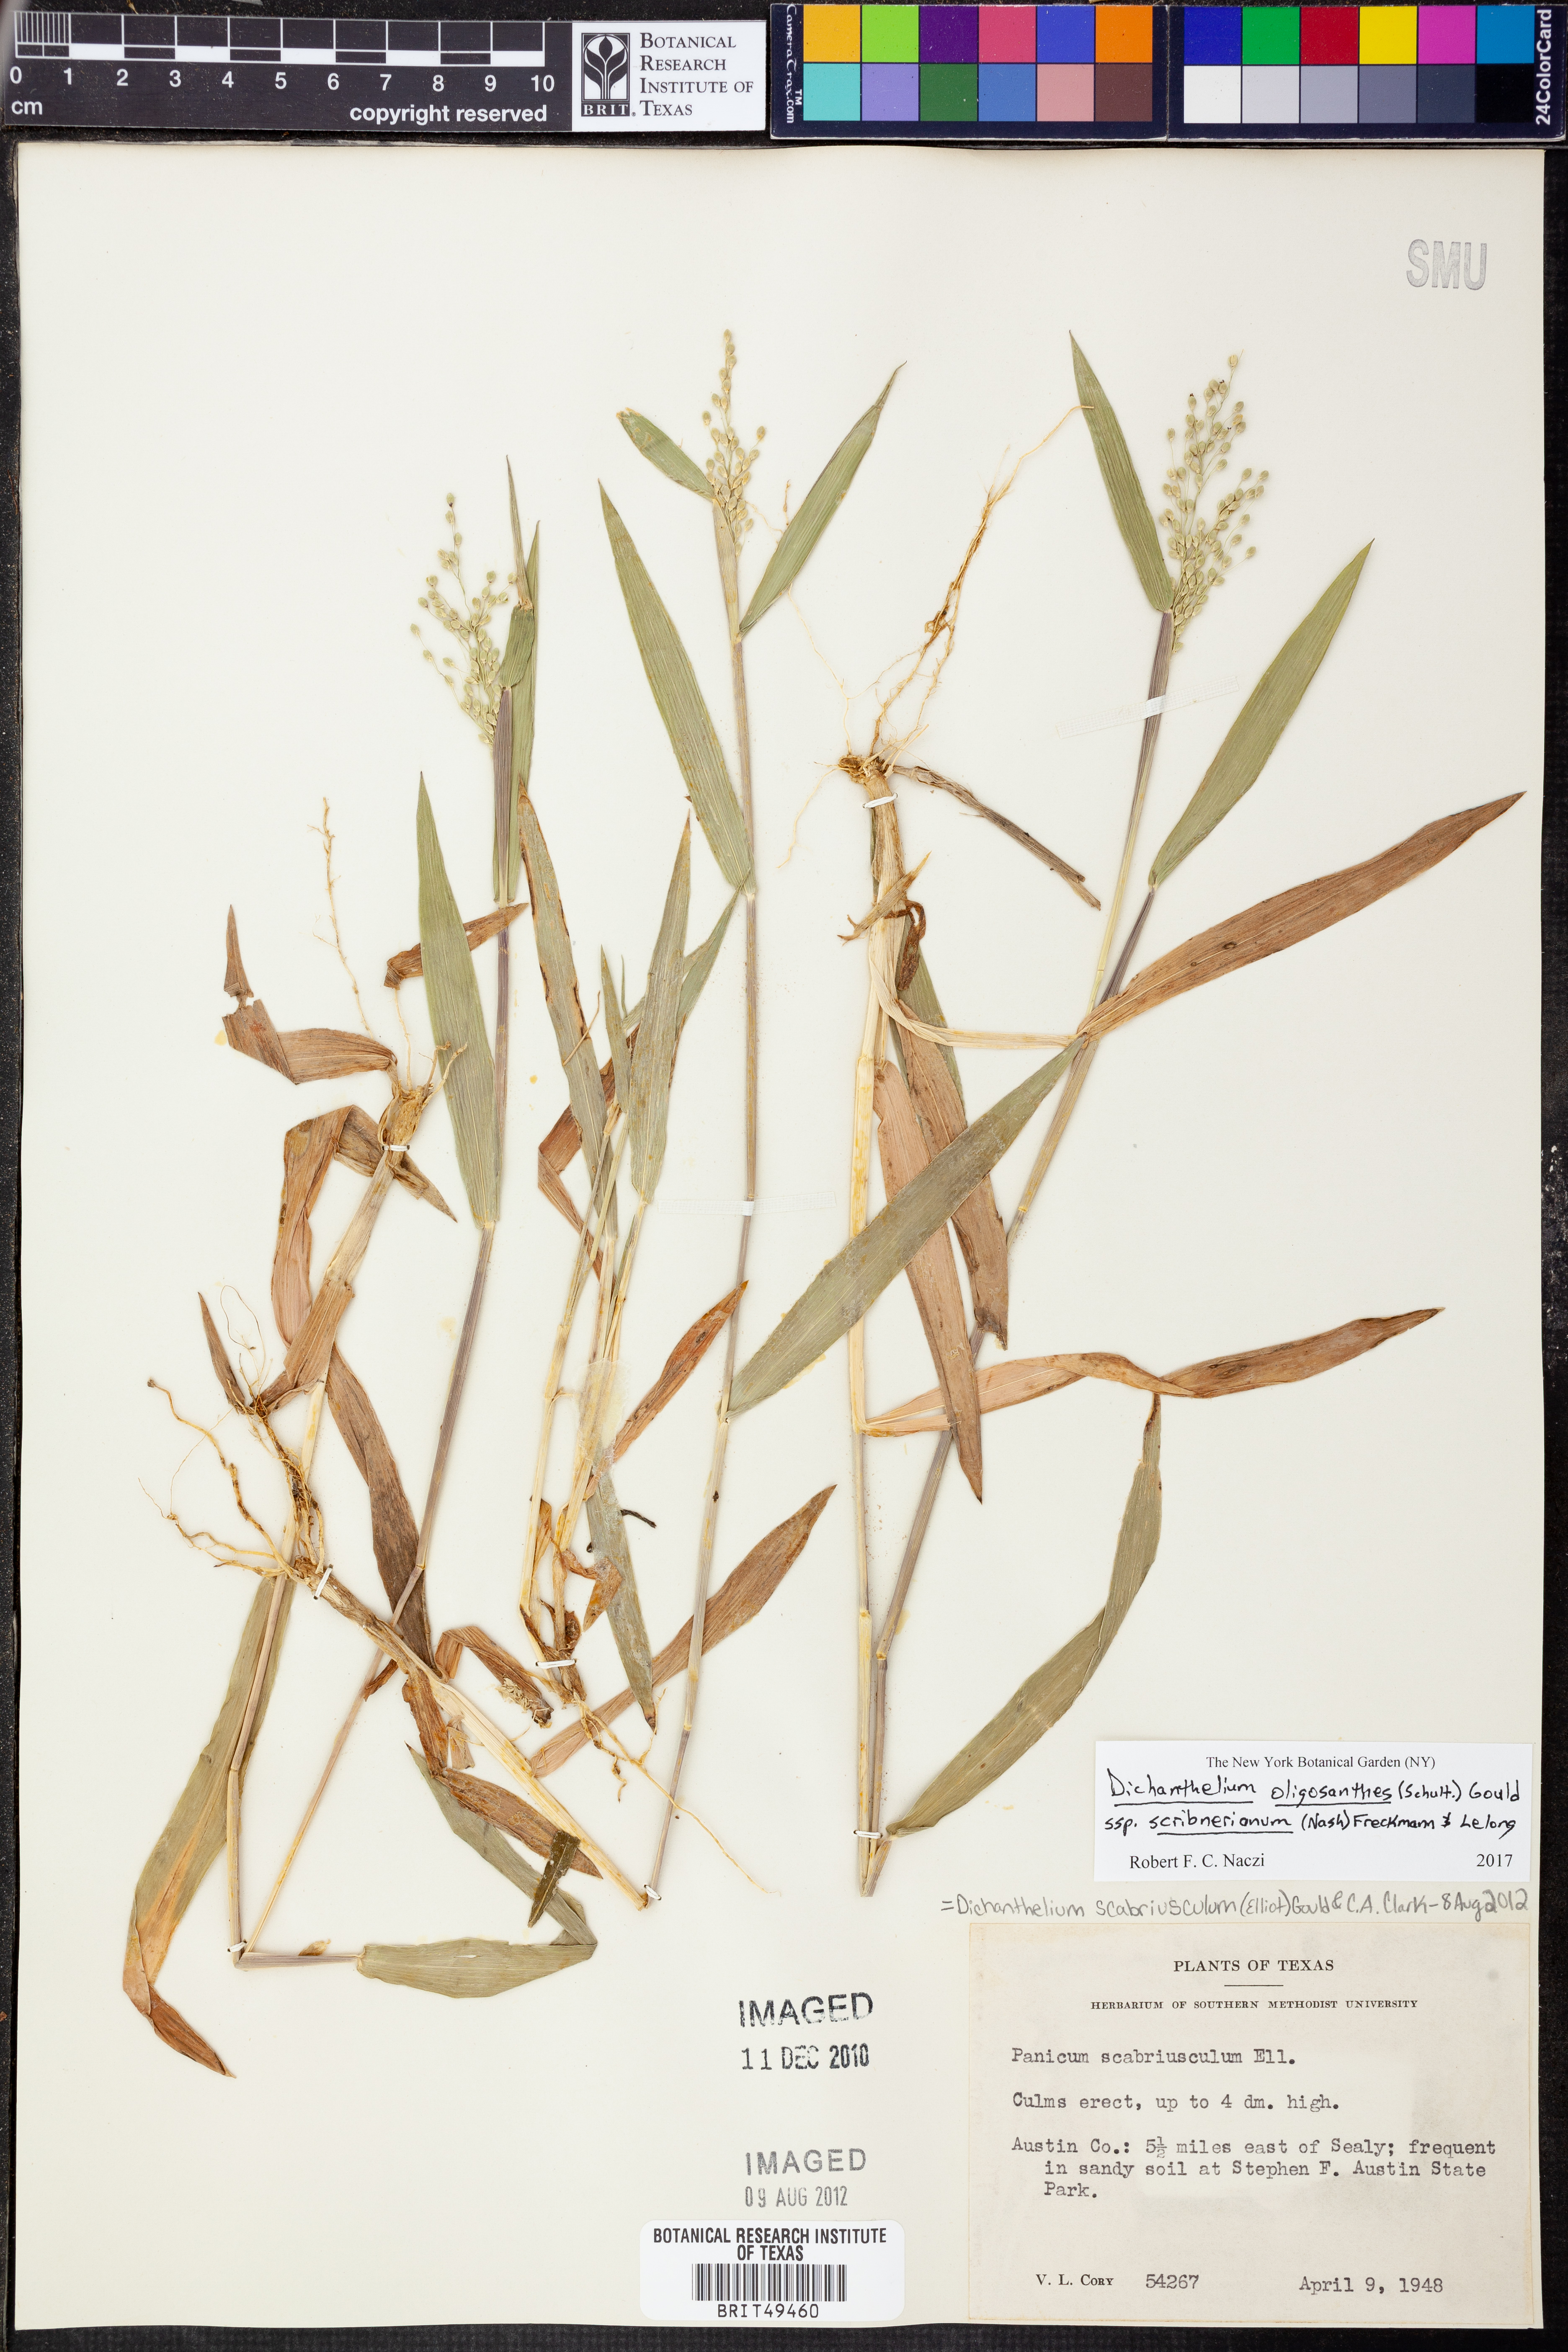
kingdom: Plantae
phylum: Tracheophyta
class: Liliopsida
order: Poales
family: Poaceae
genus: Dichanthelium
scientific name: Dichanthelium scribnerianum
